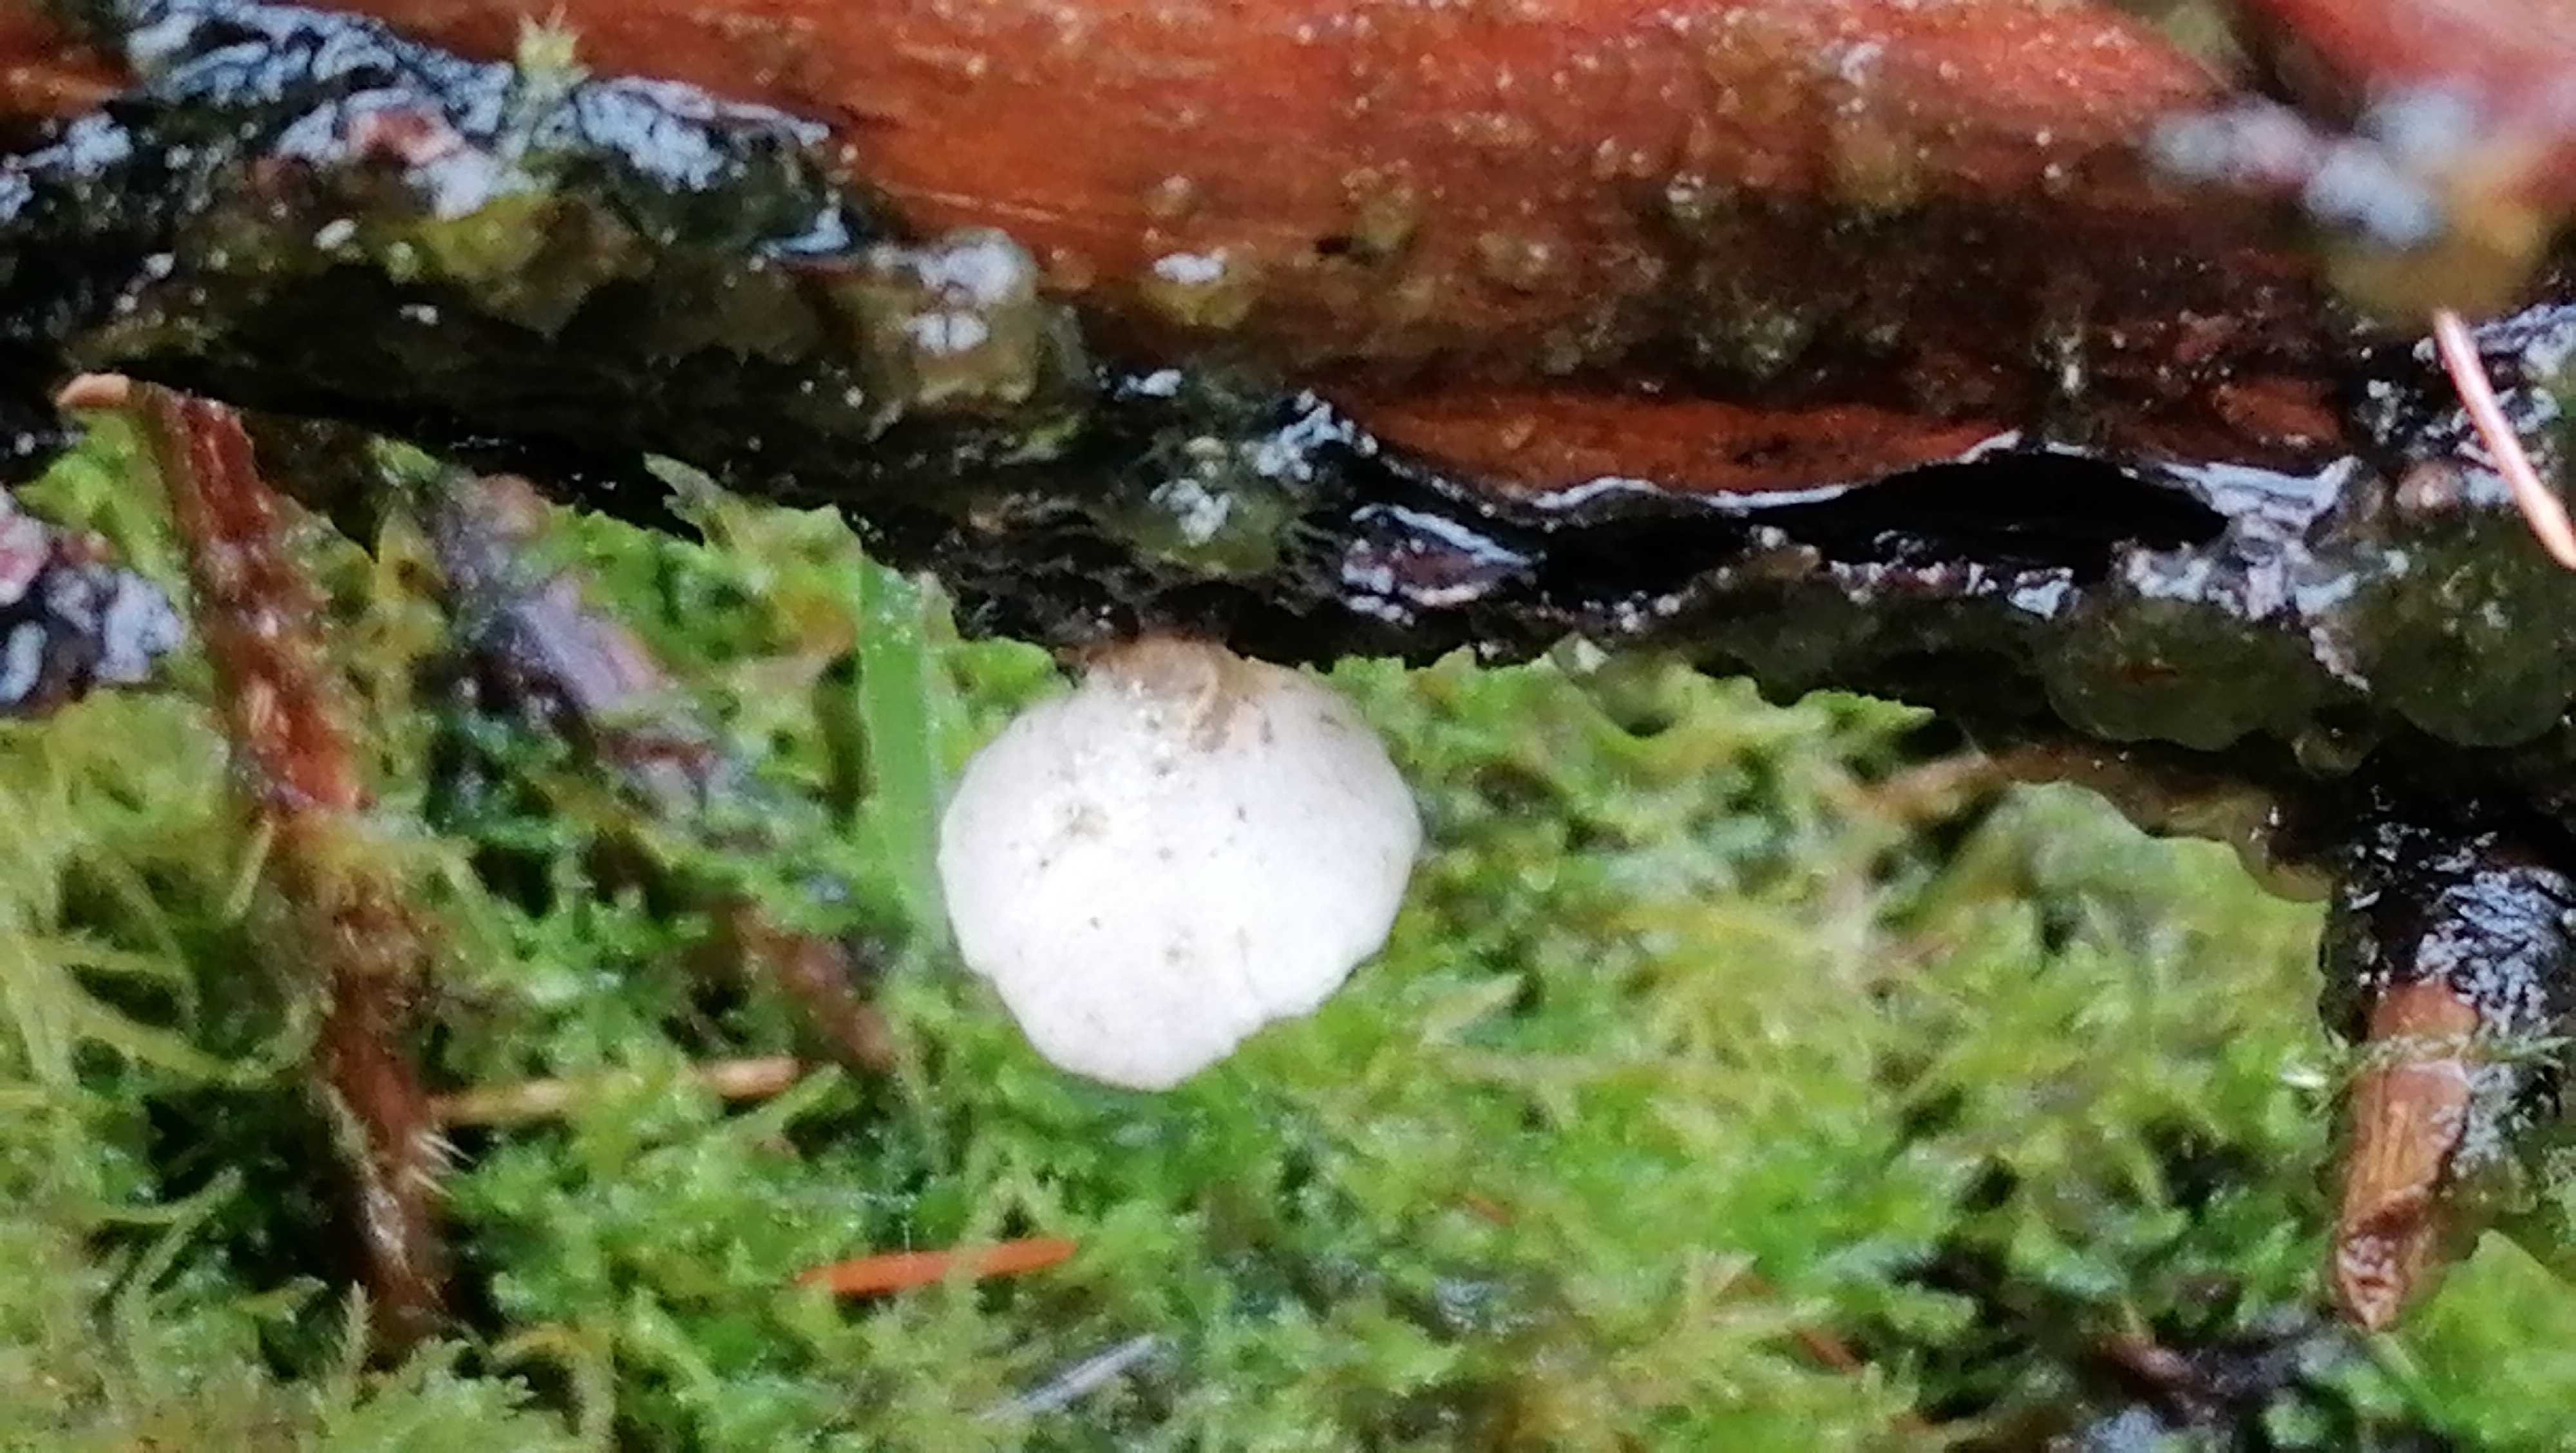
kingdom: Fungi
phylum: Basidiomycota
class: Agaricomycetes
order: Agaricales
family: Mycenaceae
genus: Panellus
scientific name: Panellus mitis
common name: mild epaulethat
